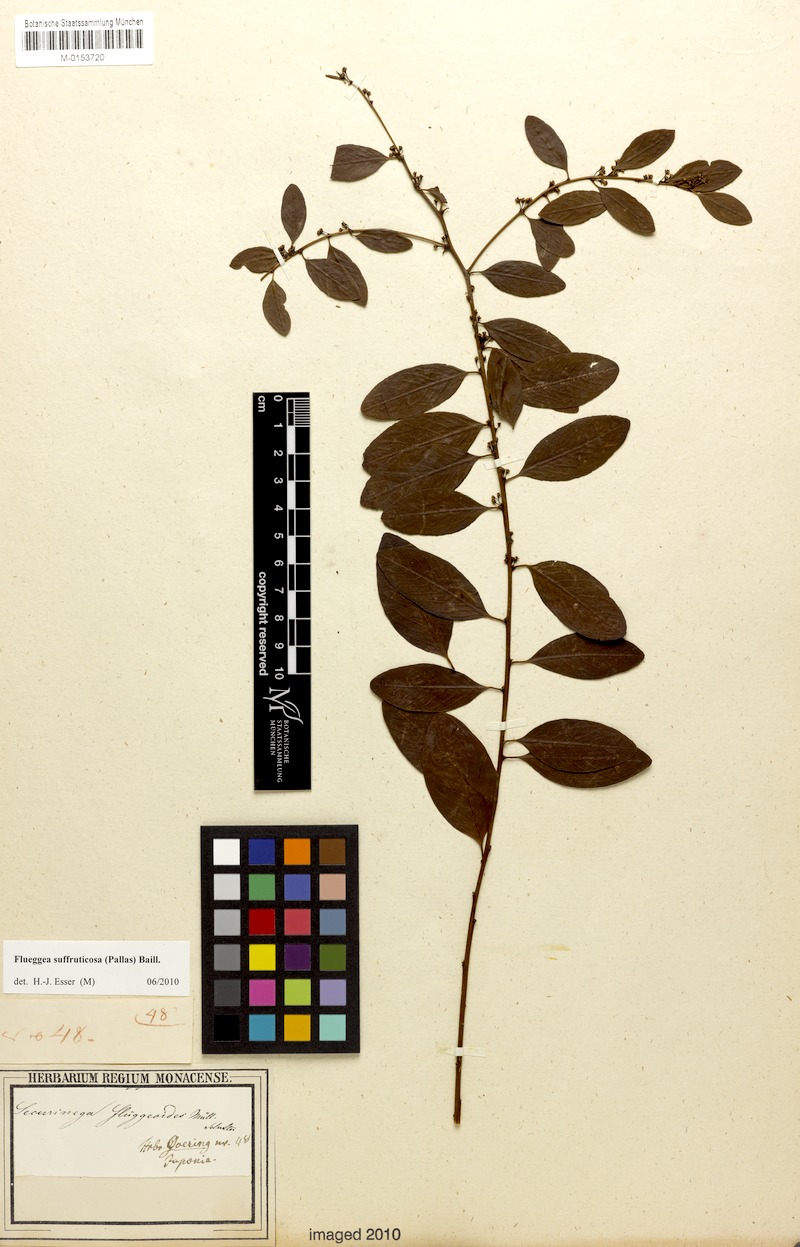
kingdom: Plantae
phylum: Tracheophyta
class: Magnoliopsida
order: Malpighiales
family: Phyllanthaceae
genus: Flueggea
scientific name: Flueggea suffruticosa
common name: Arching bushweed
